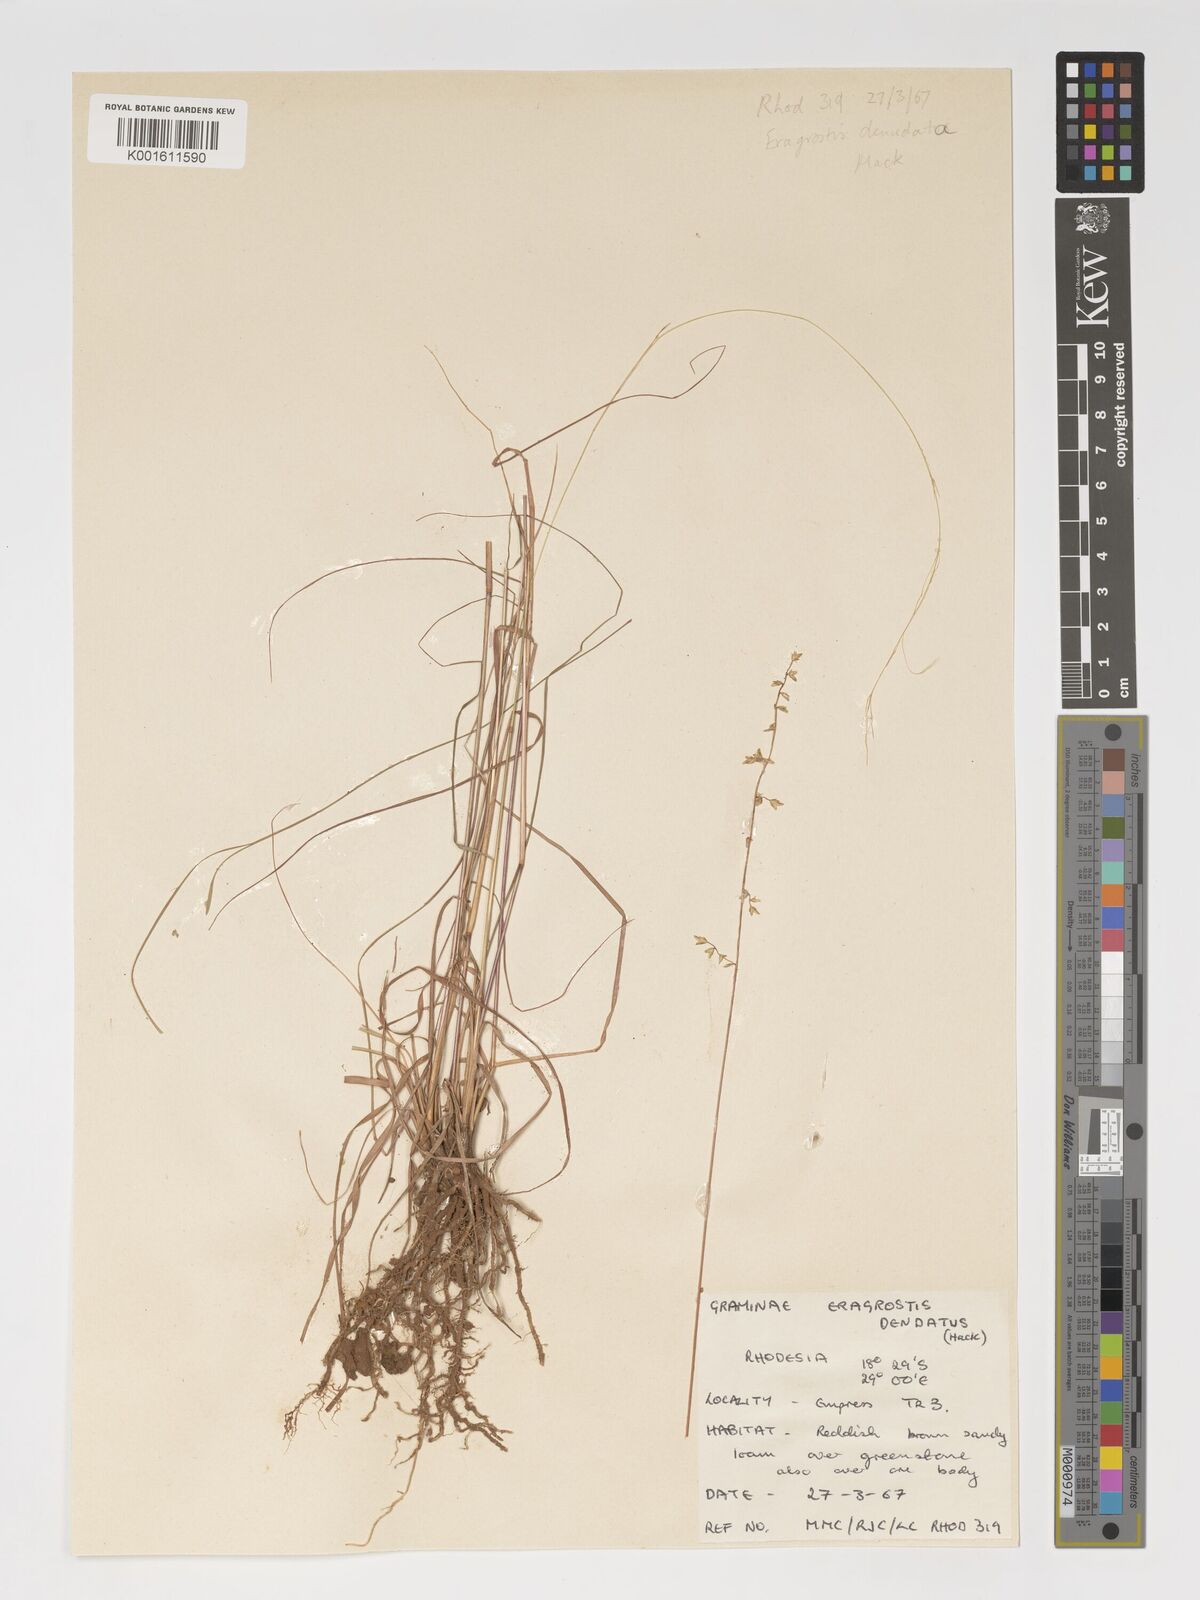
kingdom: Plantae
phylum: Tracheophyta
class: Liliopsida
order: Poales
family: Poaceae
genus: Eragrostis
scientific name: Eragrostis
